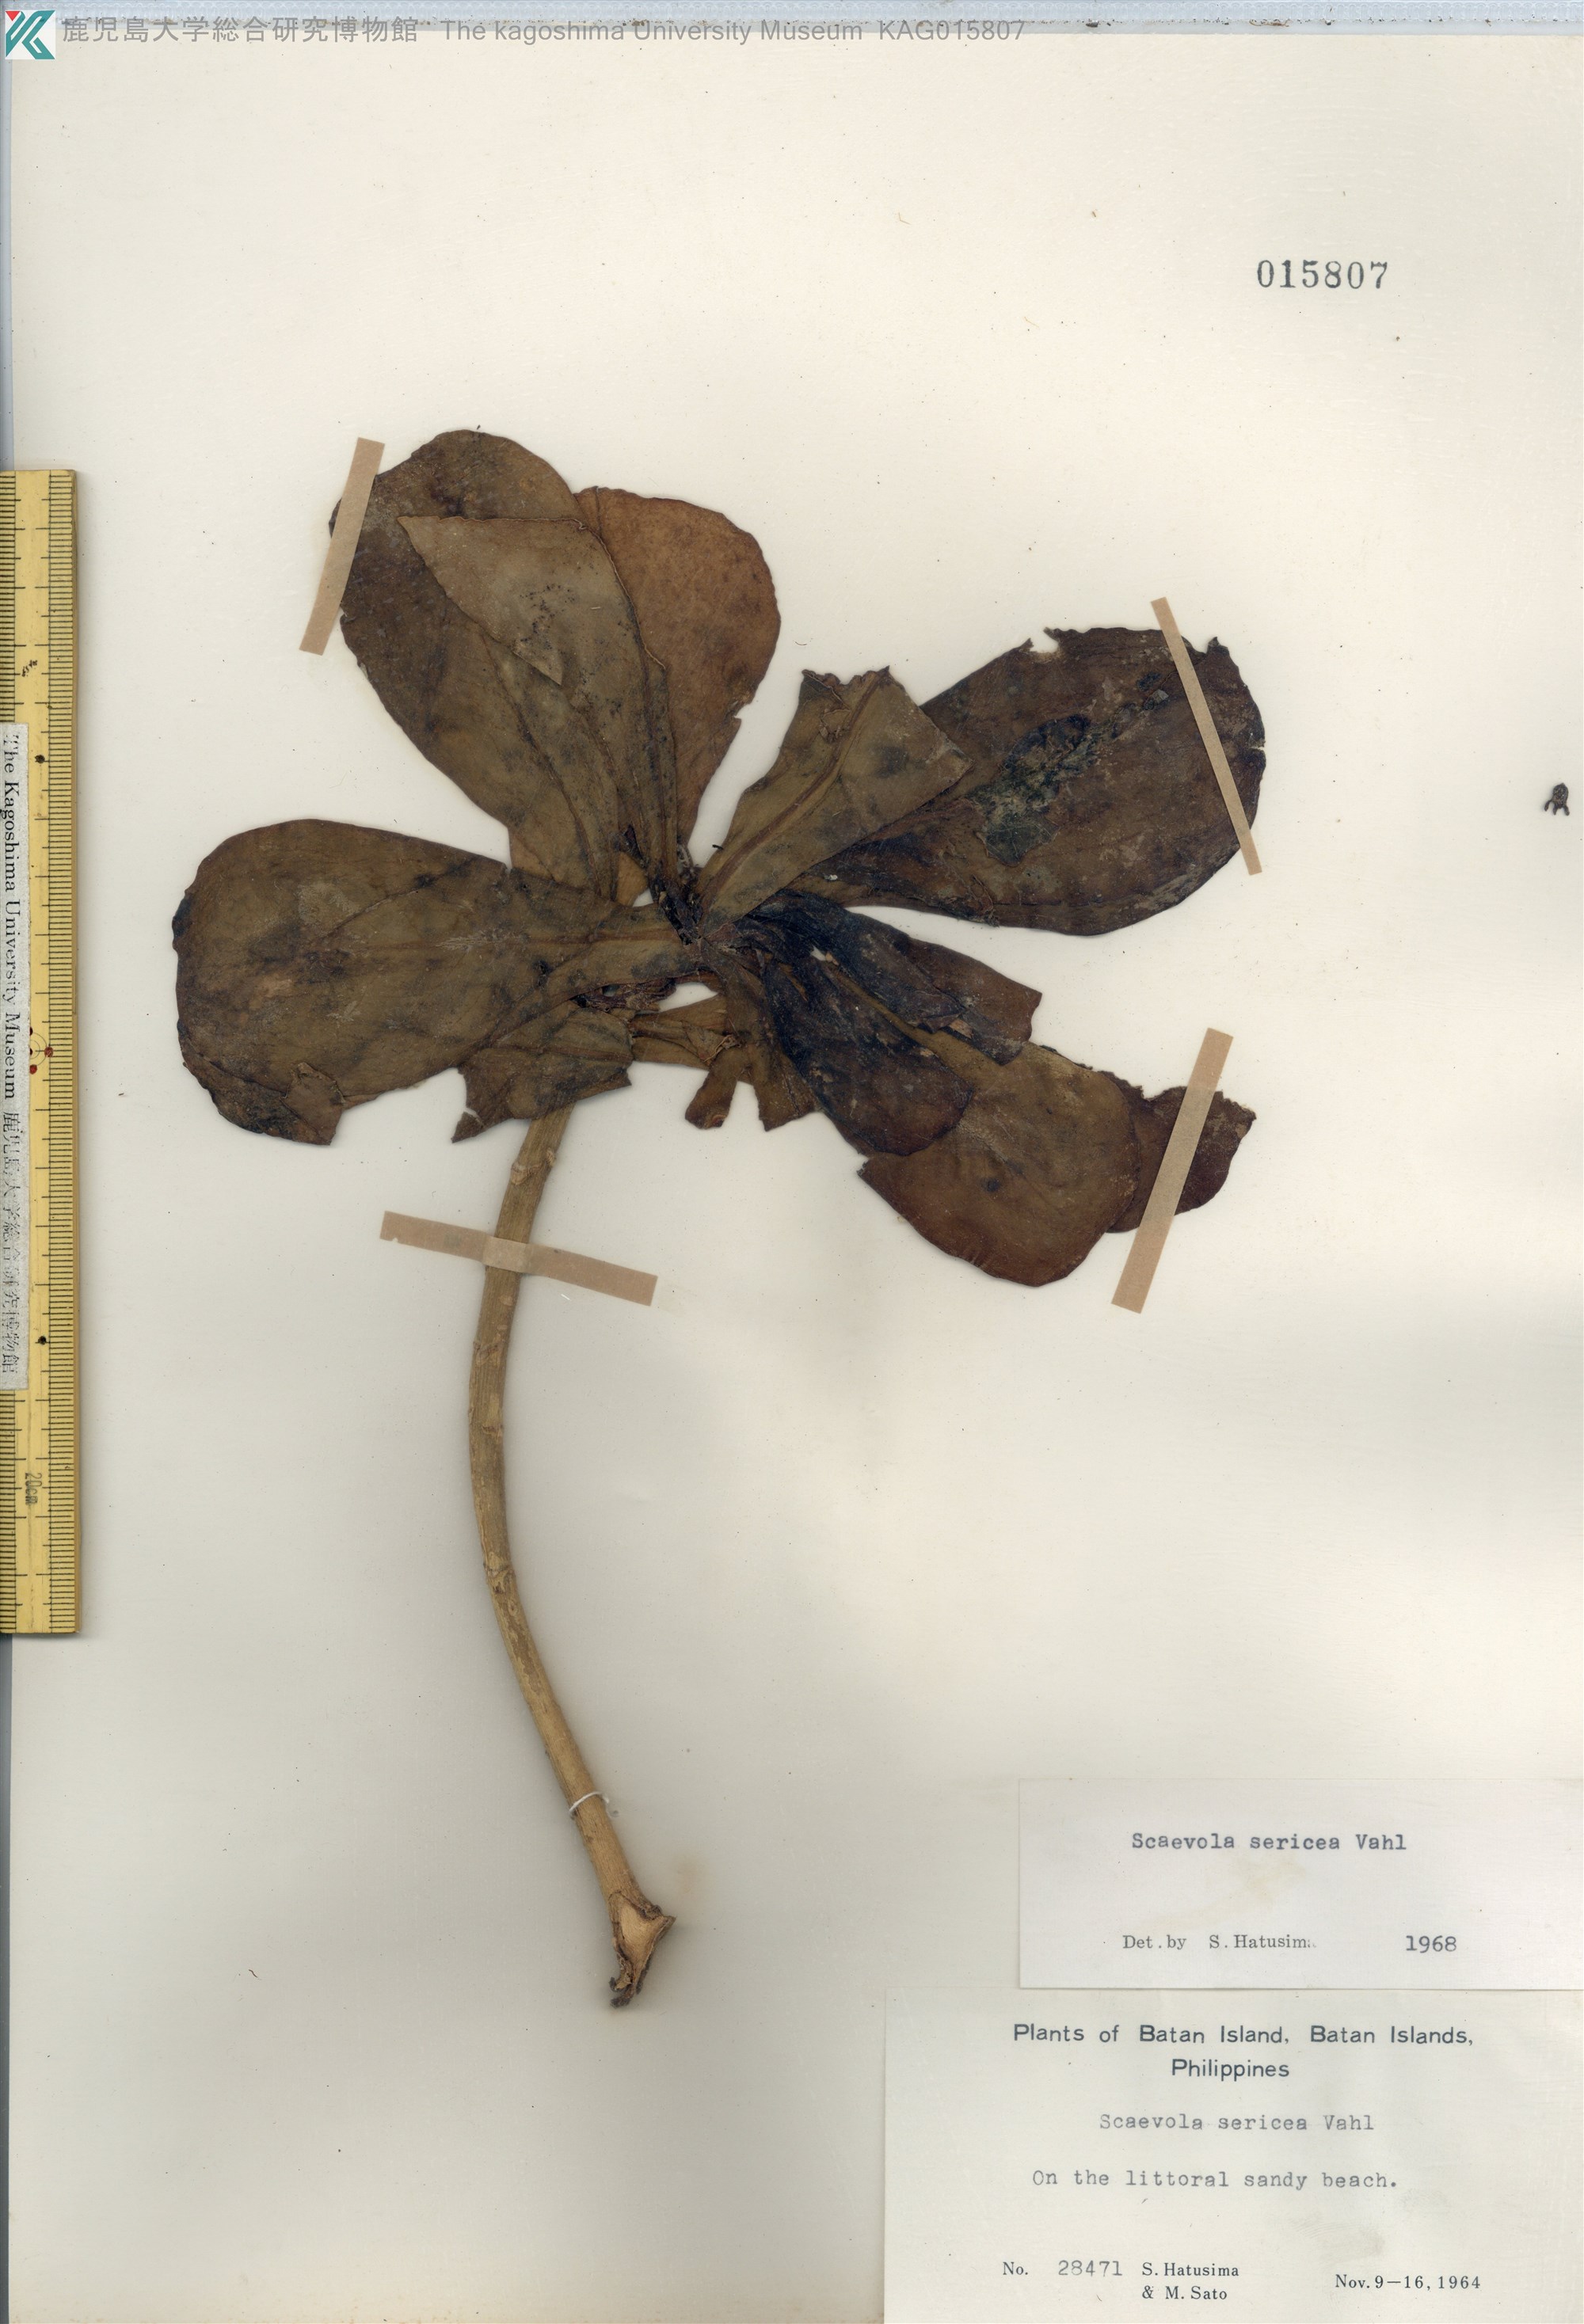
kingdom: Plantae
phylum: Tracheophyta
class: Magnoliopsida
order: Asterales
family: Goodeniaceae
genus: Scaevola
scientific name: Scaevola taccada
